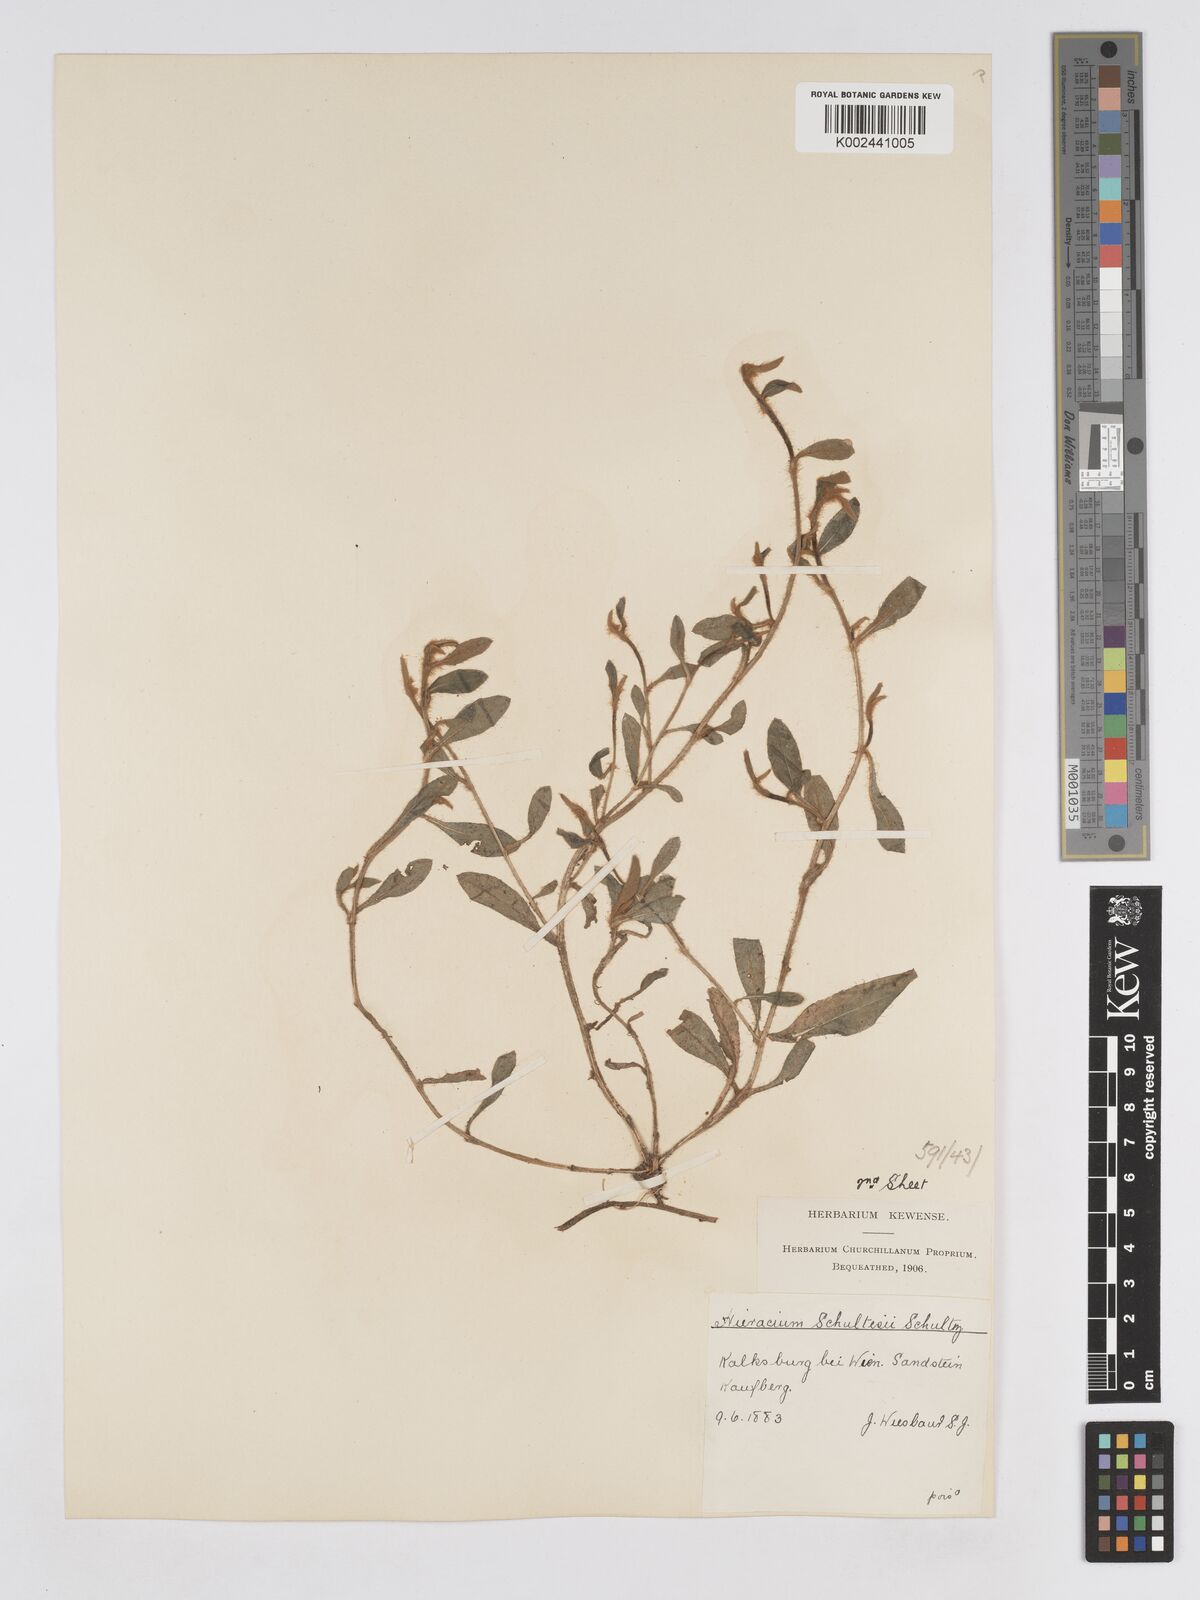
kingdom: Plantae
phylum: Tracheophyta
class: Magnoliopsida
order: Asterales
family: Asteraceae
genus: Pilosella
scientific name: Pilosella schultesii
